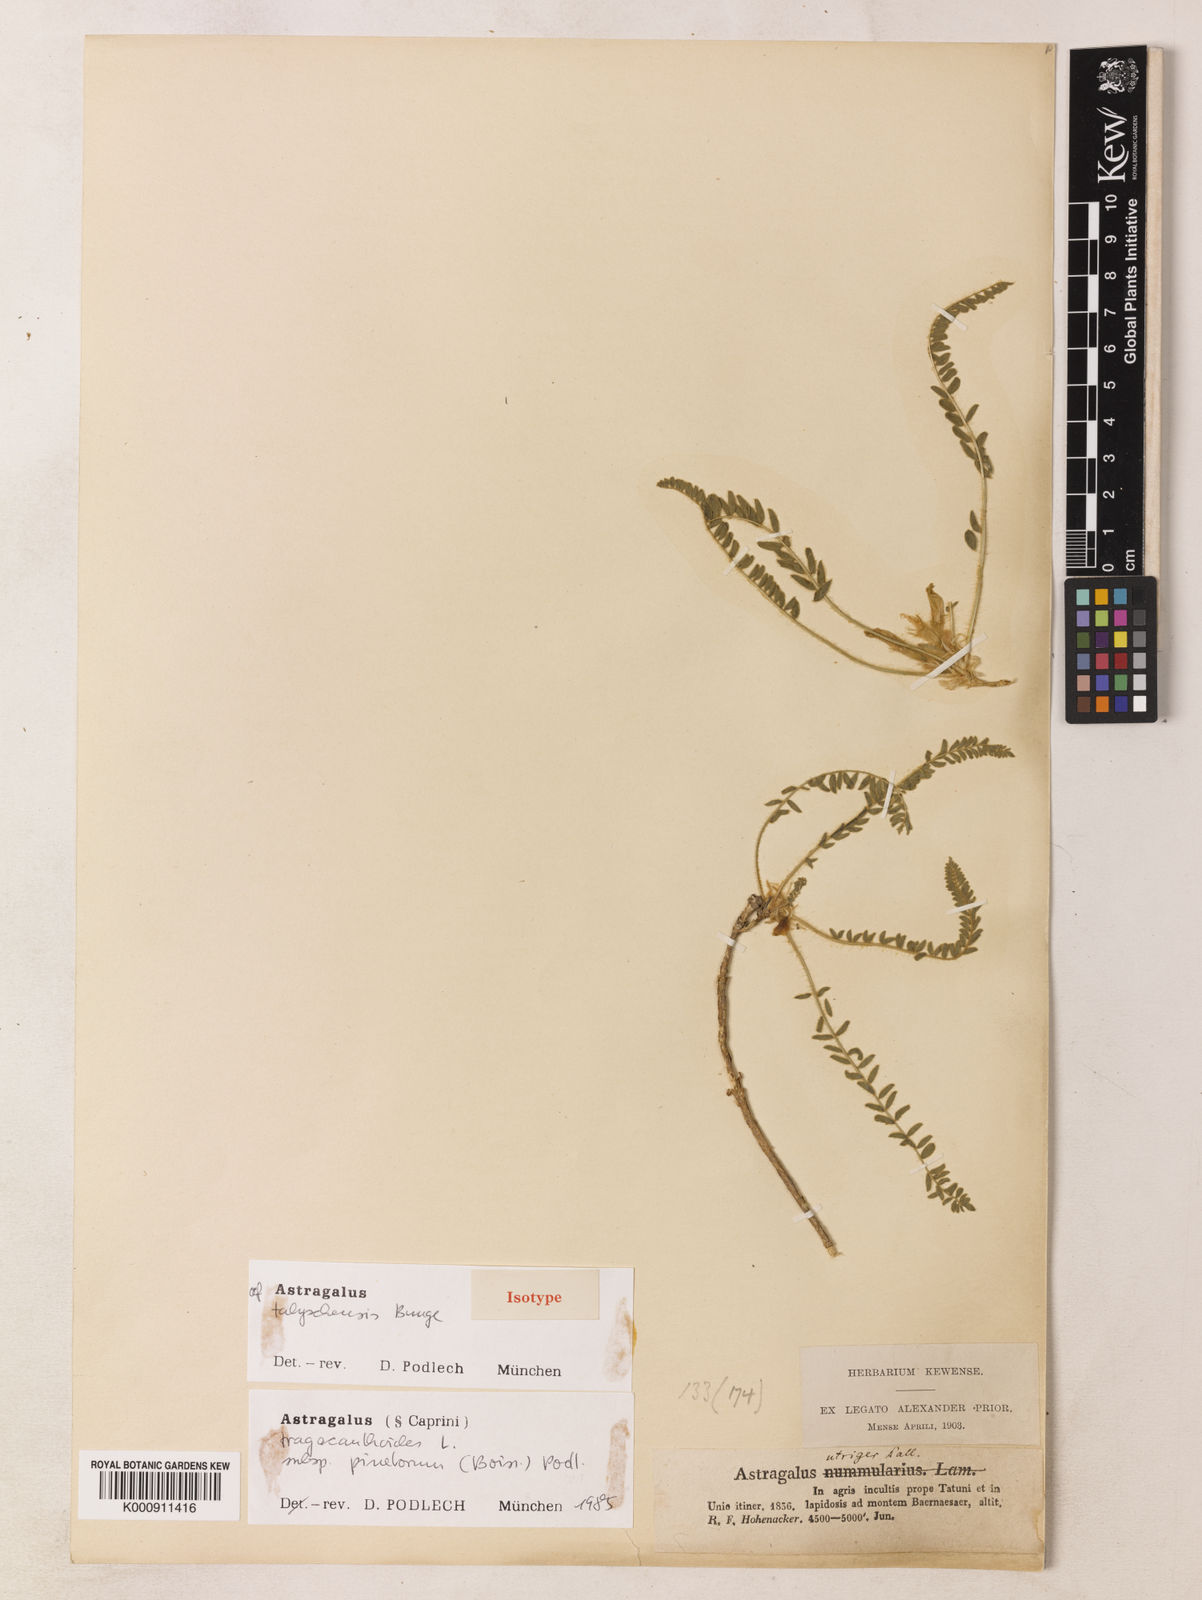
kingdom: Plantae
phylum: Tracheophyta
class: Magnoliopsida
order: Fabales
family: Fabaceae
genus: Astragalus
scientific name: Astragalus pinetorum
